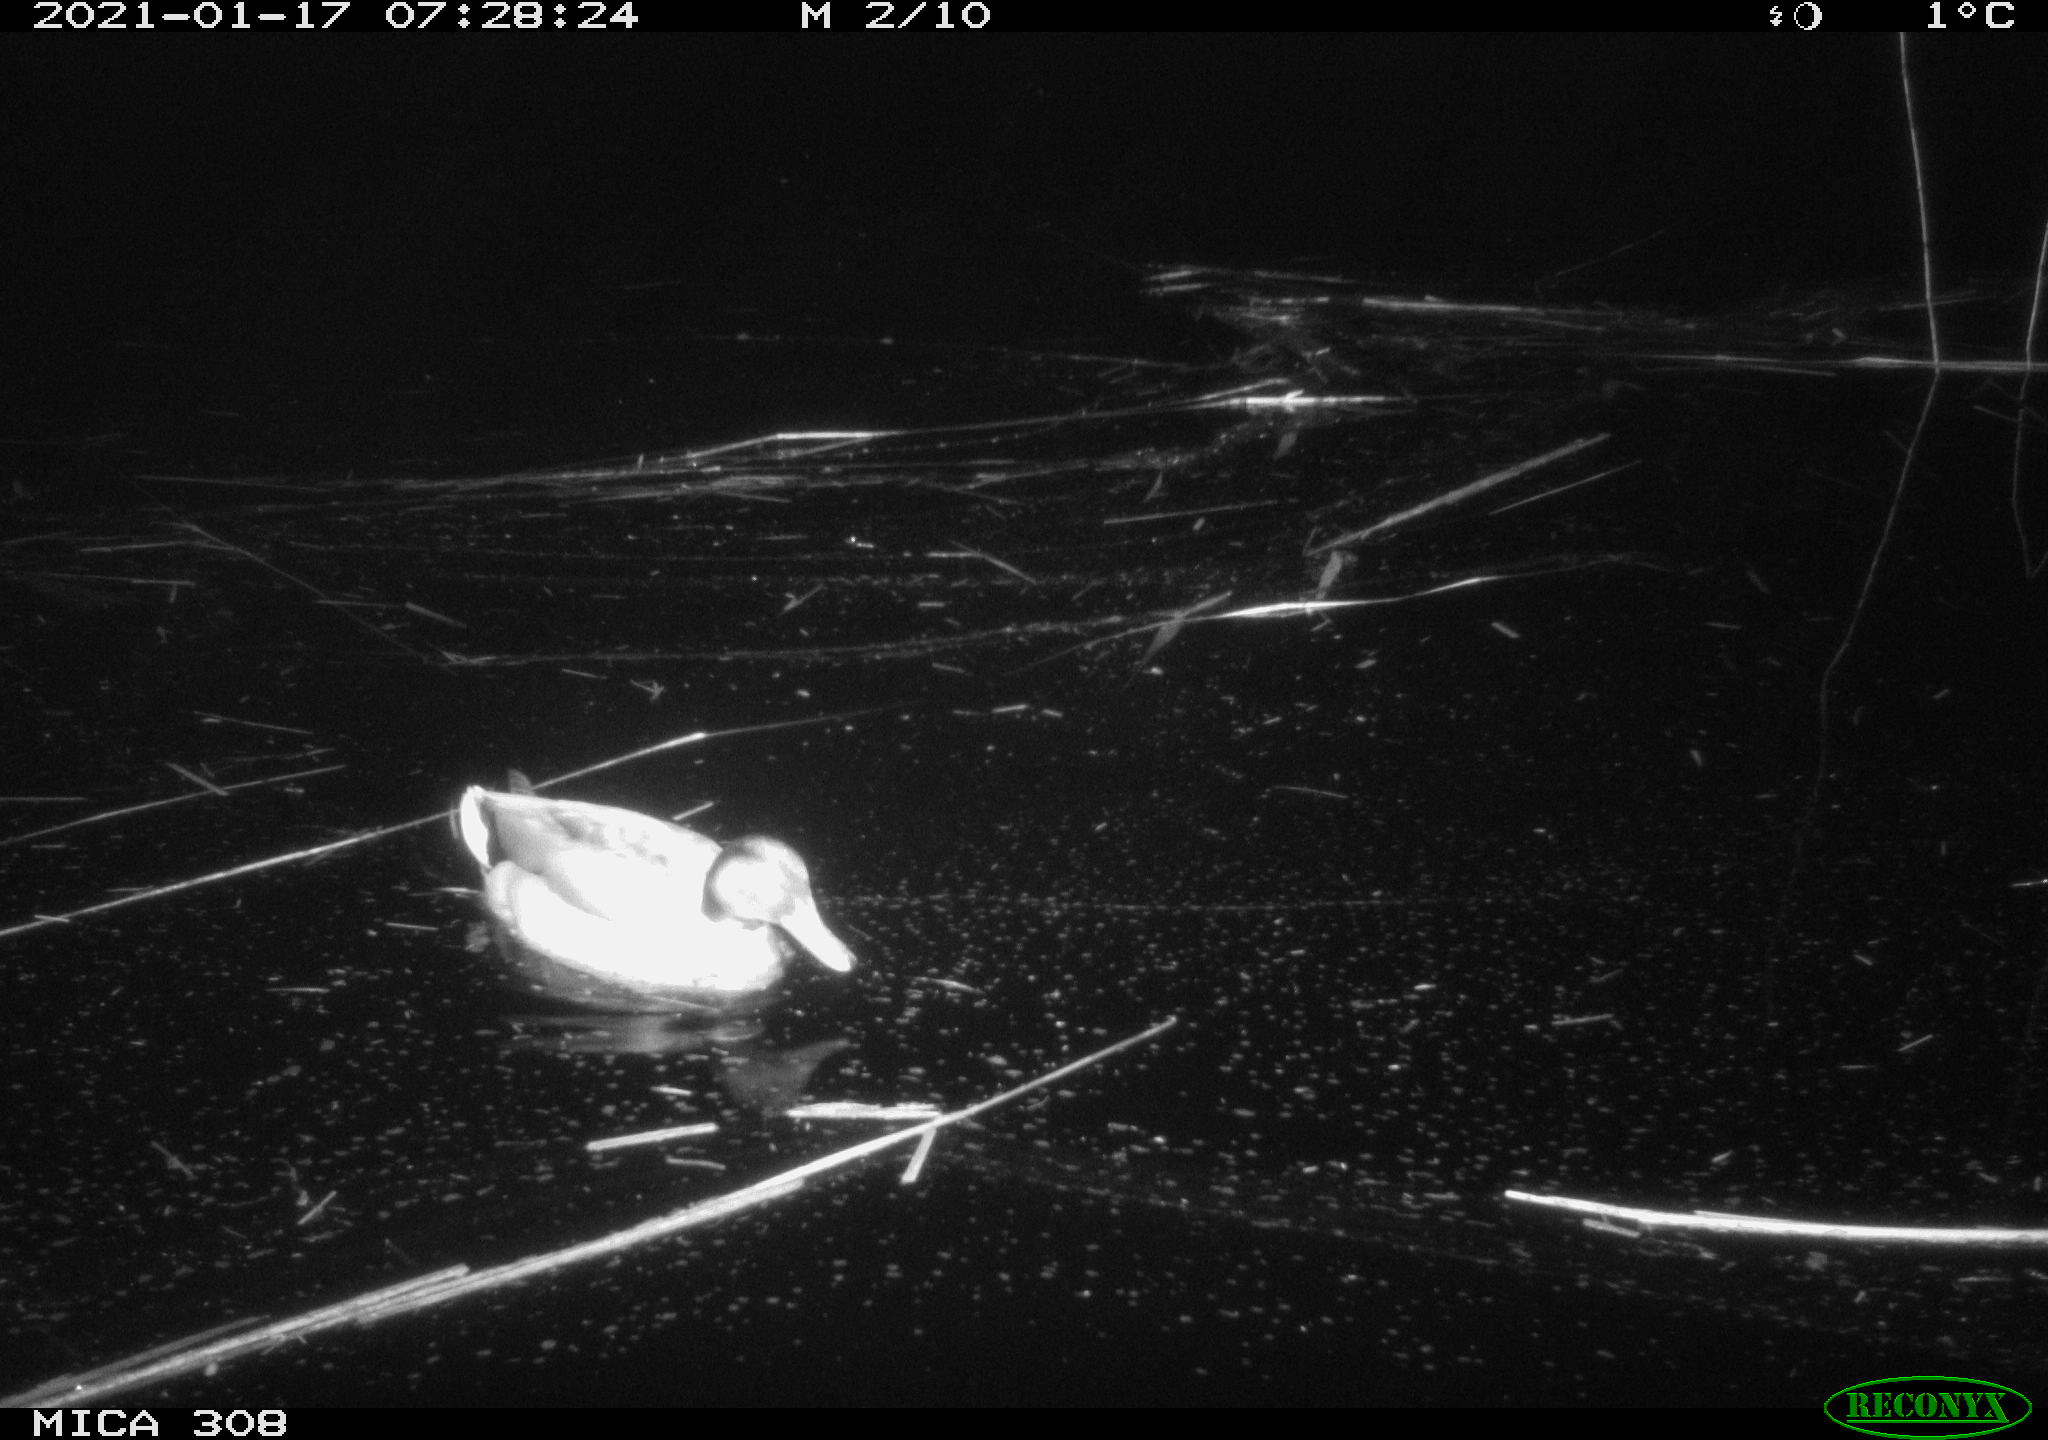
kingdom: Animalia
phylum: Chordata
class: Aves
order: Anseriformes
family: Anatidae
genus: Anas
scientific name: Anas platyrhynchos
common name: Mallard
